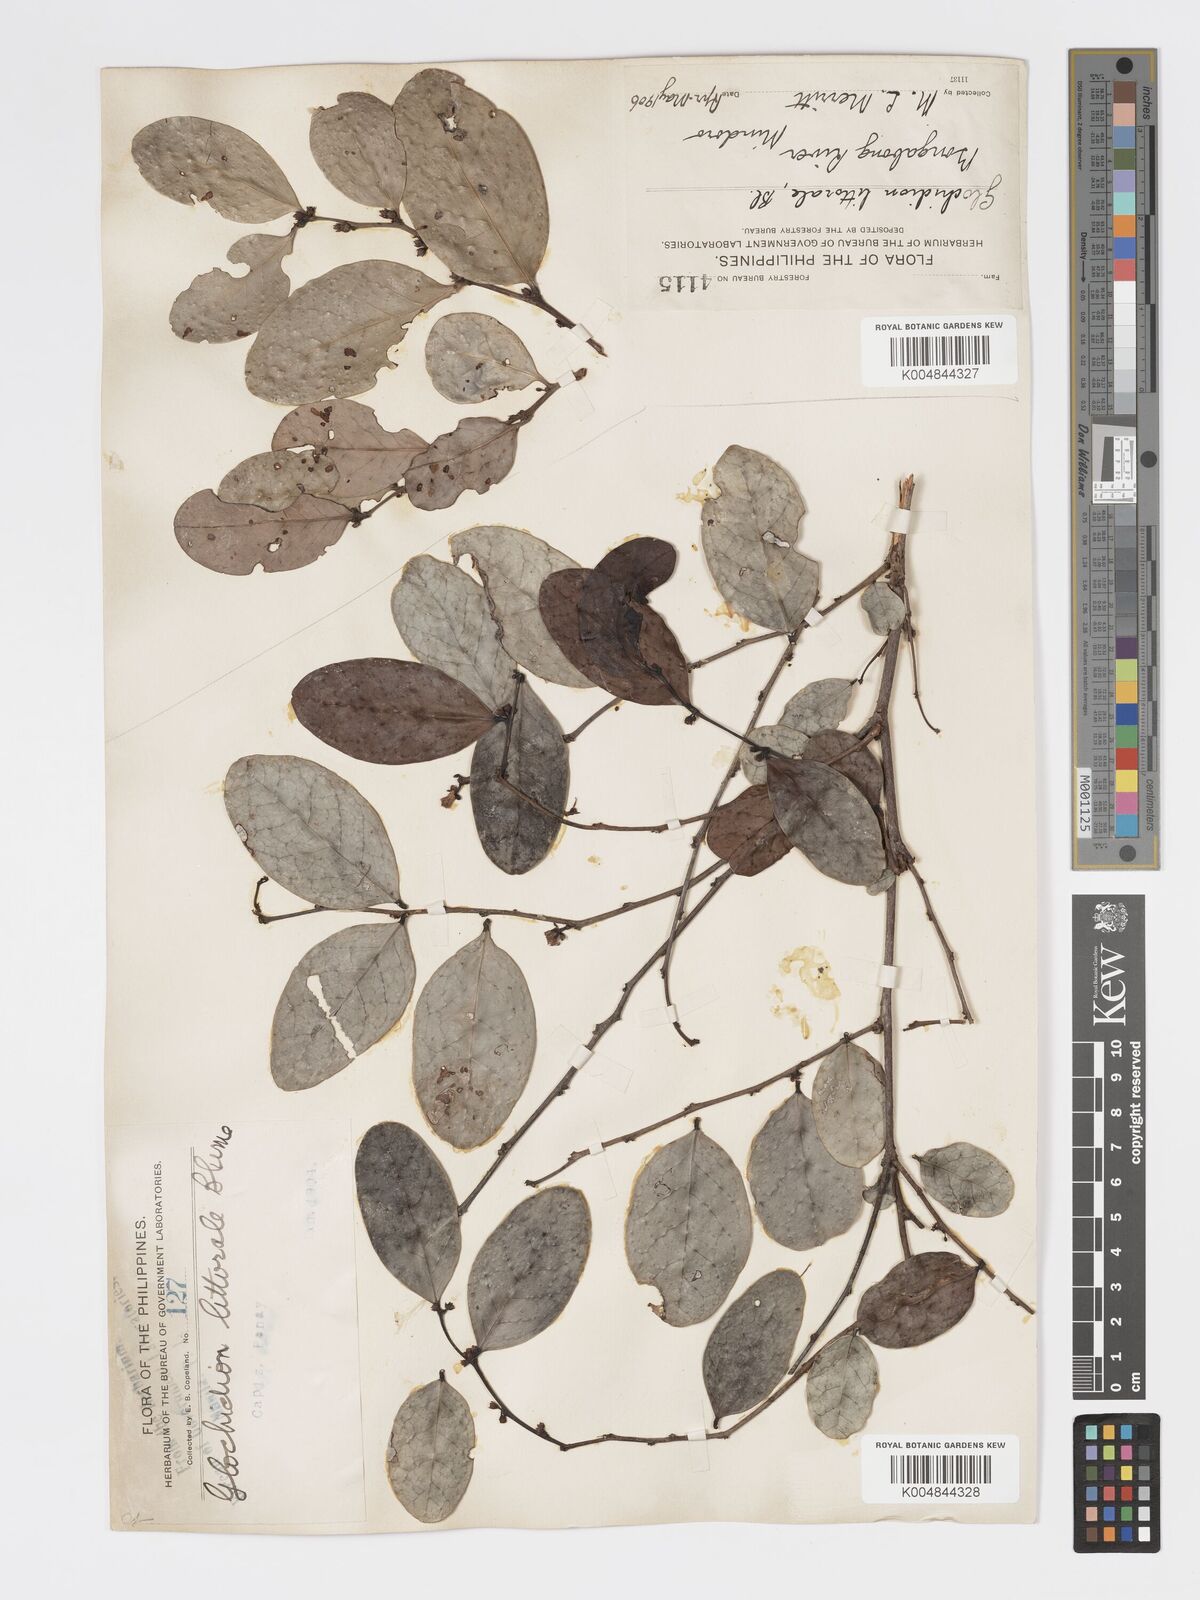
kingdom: Plantae
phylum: Tracheophyta
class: Magnoliopsida
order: Malpighiales
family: Phyllanthaceae
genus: Glochidion
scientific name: Glochidion
